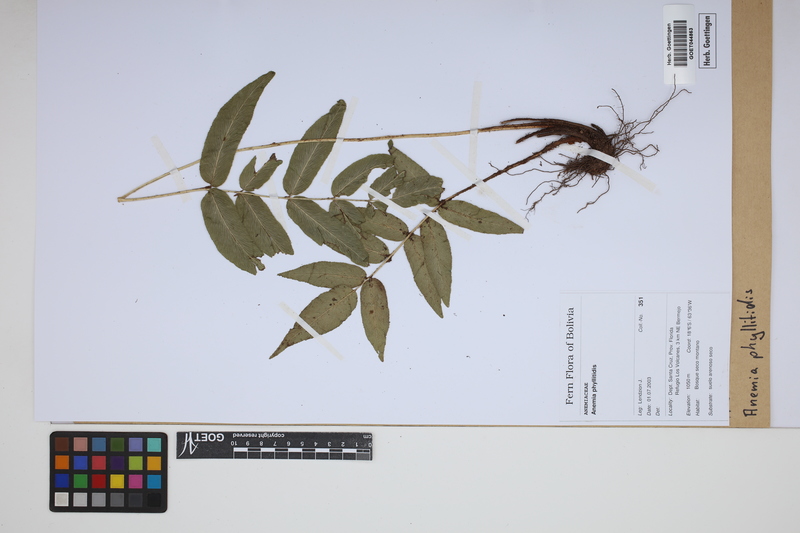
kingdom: Plantae
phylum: Tracheophyta
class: Polypodiopsida
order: Schizaeales
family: Anemiaceae
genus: Anemia
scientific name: Anemia phyllitidis
